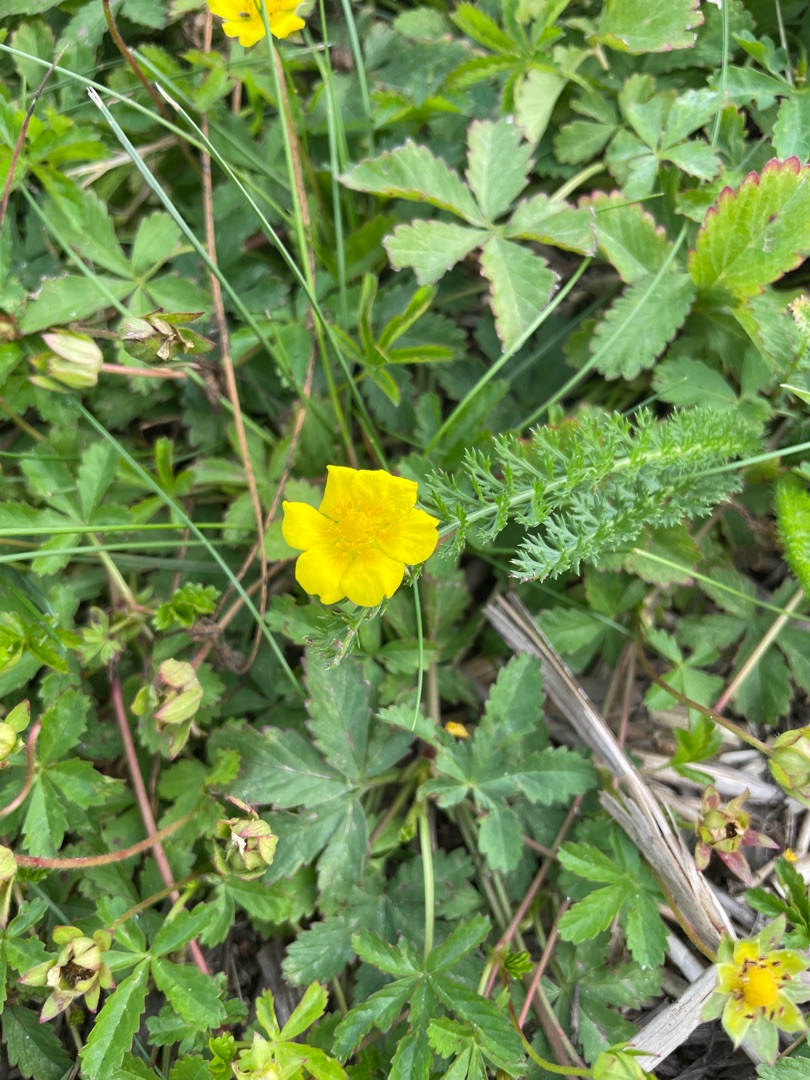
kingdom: Plantae
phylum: Tracheophyta
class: Magnoliopsida
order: Rosales
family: Rosaceae
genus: Potentilla
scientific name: Potentilla reptans
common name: Krybende potentil
